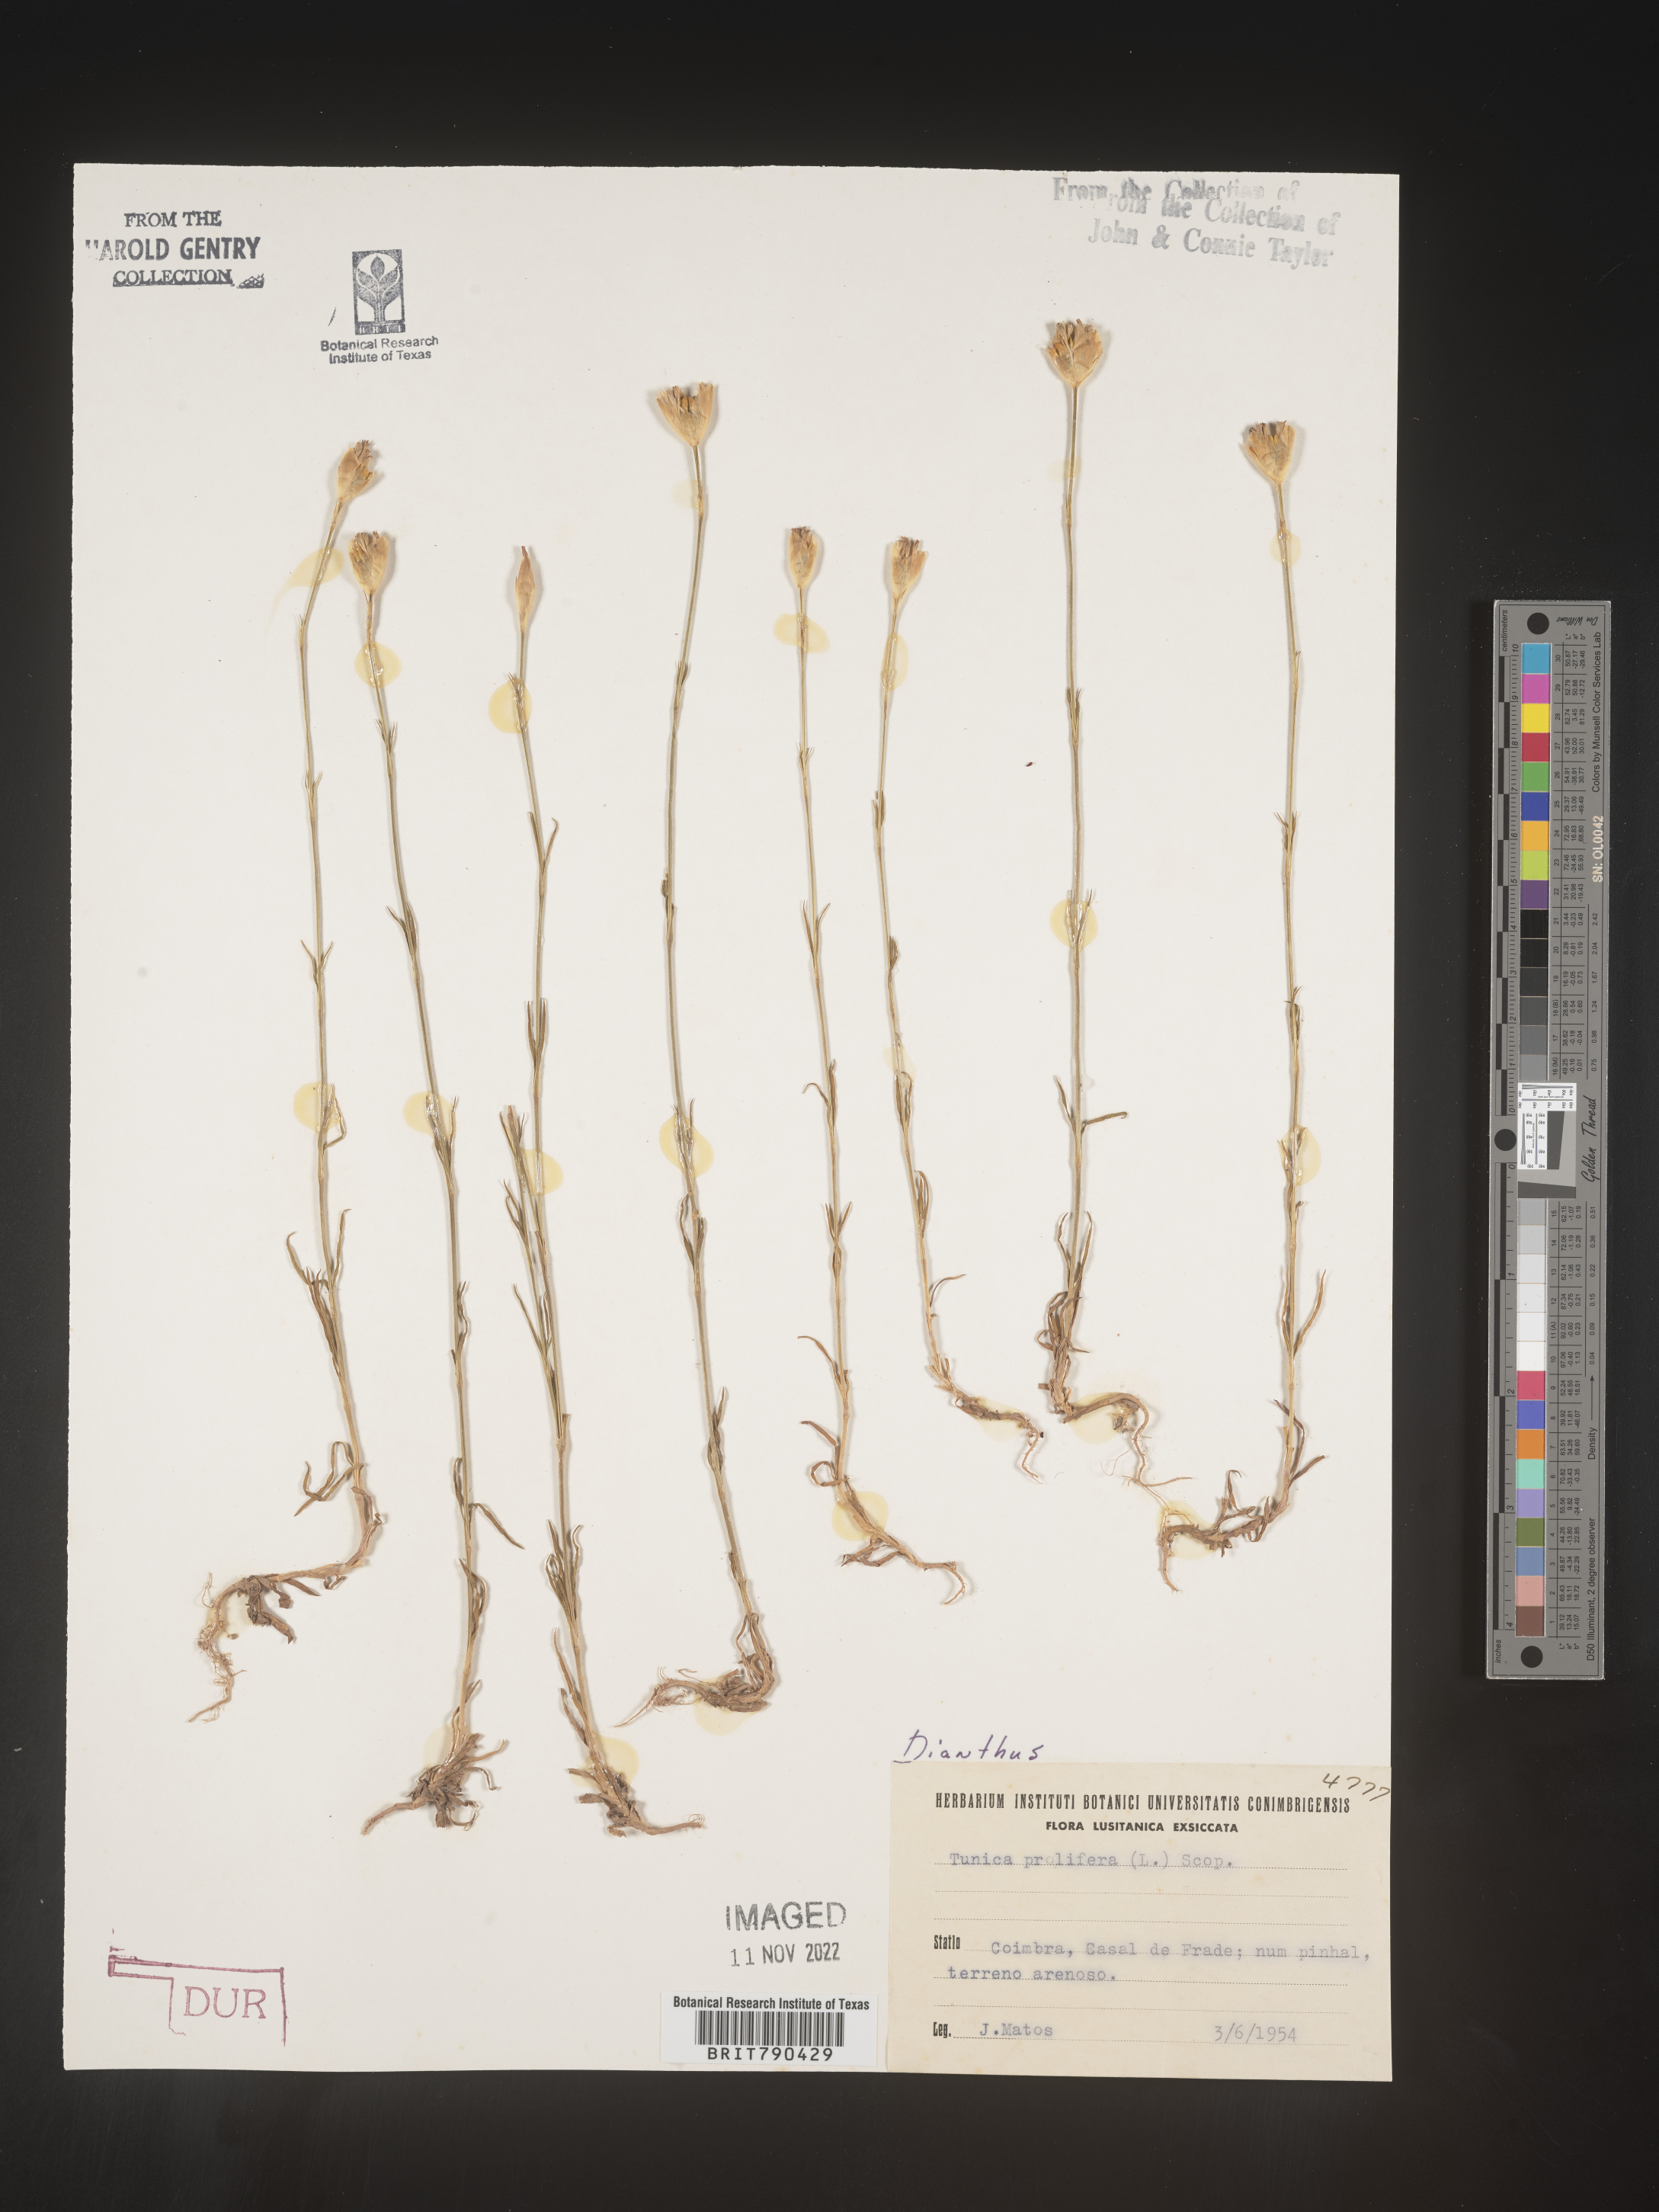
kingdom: Plantae
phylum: Tracheophyta
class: Magnoliopsida
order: Caryophyllales
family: Caryophyllaceae
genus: Dianthus
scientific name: Dianthus
